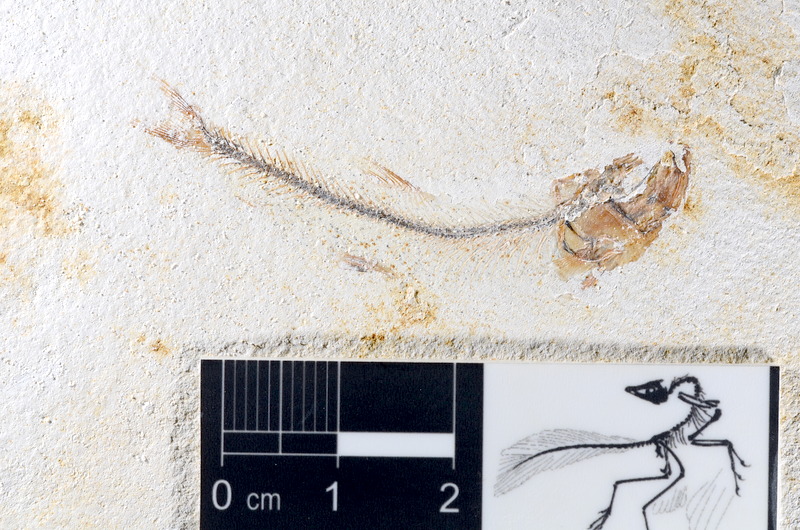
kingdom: Animalia
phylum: Chordata
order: Salmoniformes
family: Orthogonikleithridae
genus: Orthogonikleithrus
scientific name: Orthogonikleithrus hoelli
